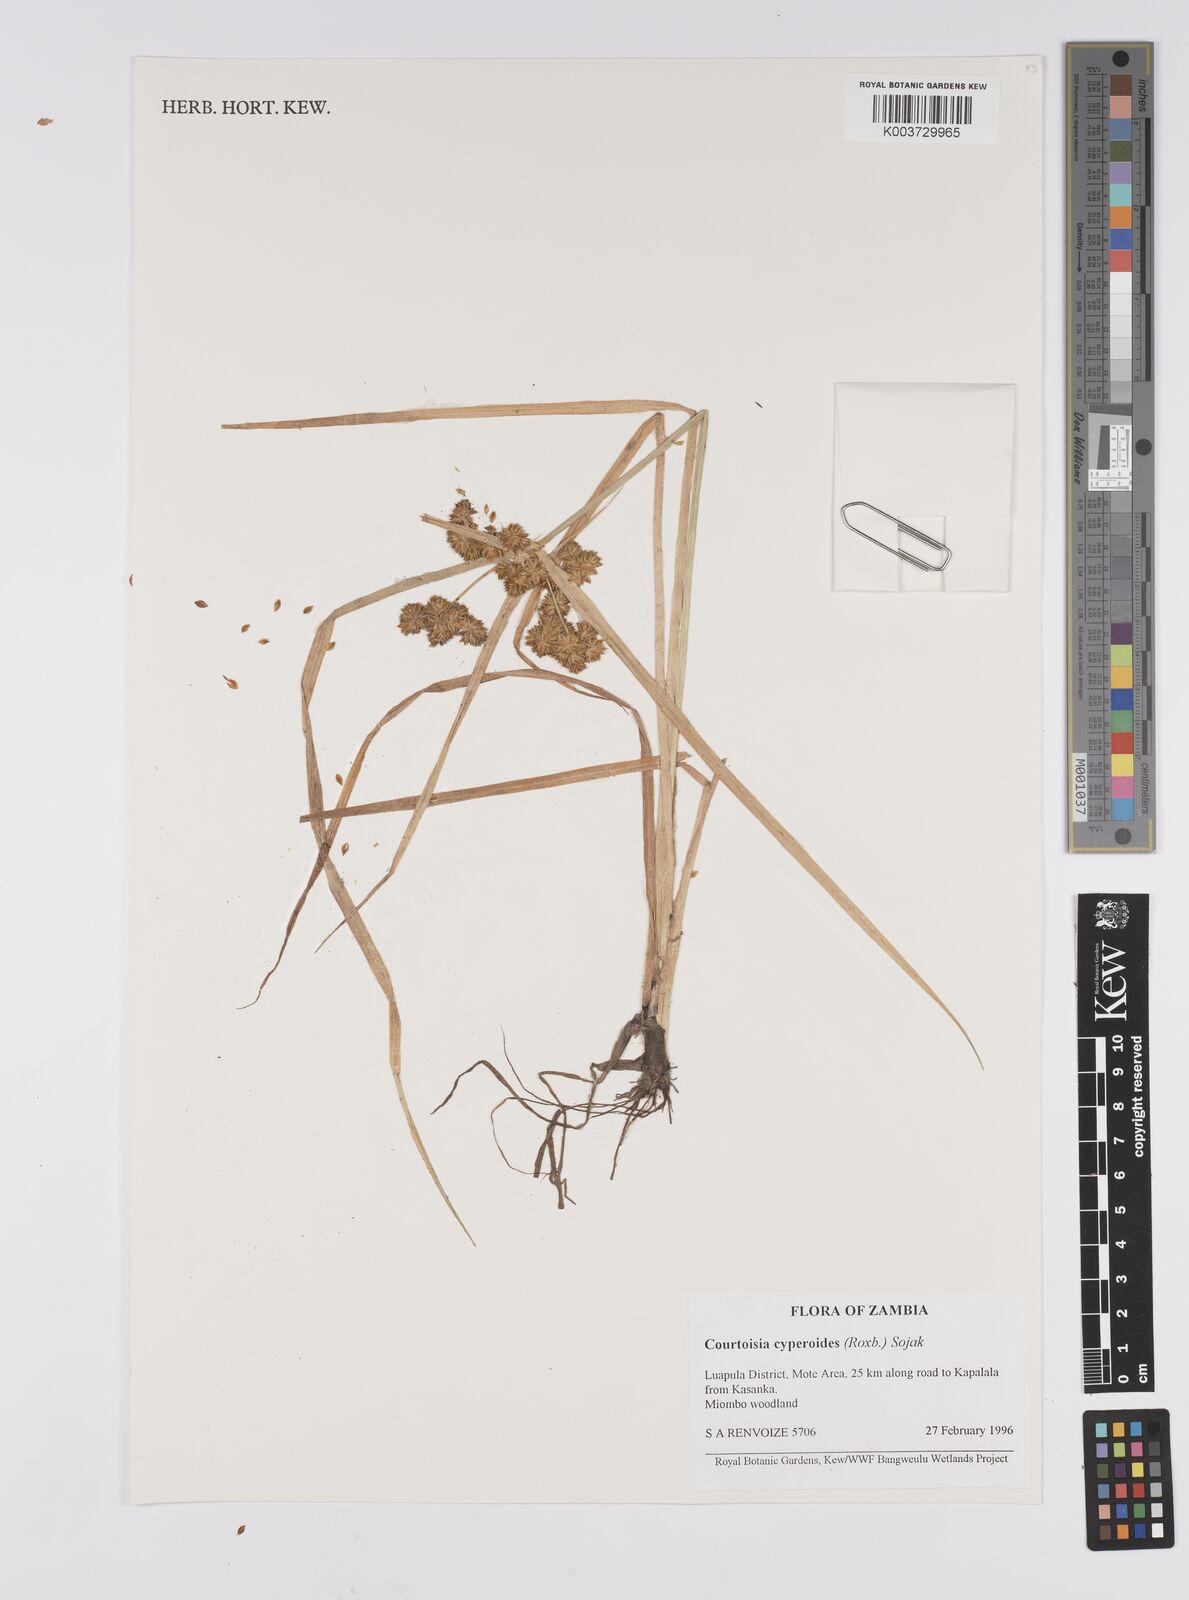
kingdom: Plantae
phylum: Tracheophyta
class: Liliopsida
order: Poales
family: Cyperaceae
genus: Cyperus
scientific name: Cyperus cyperoides
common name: Pacific island flat sedge
